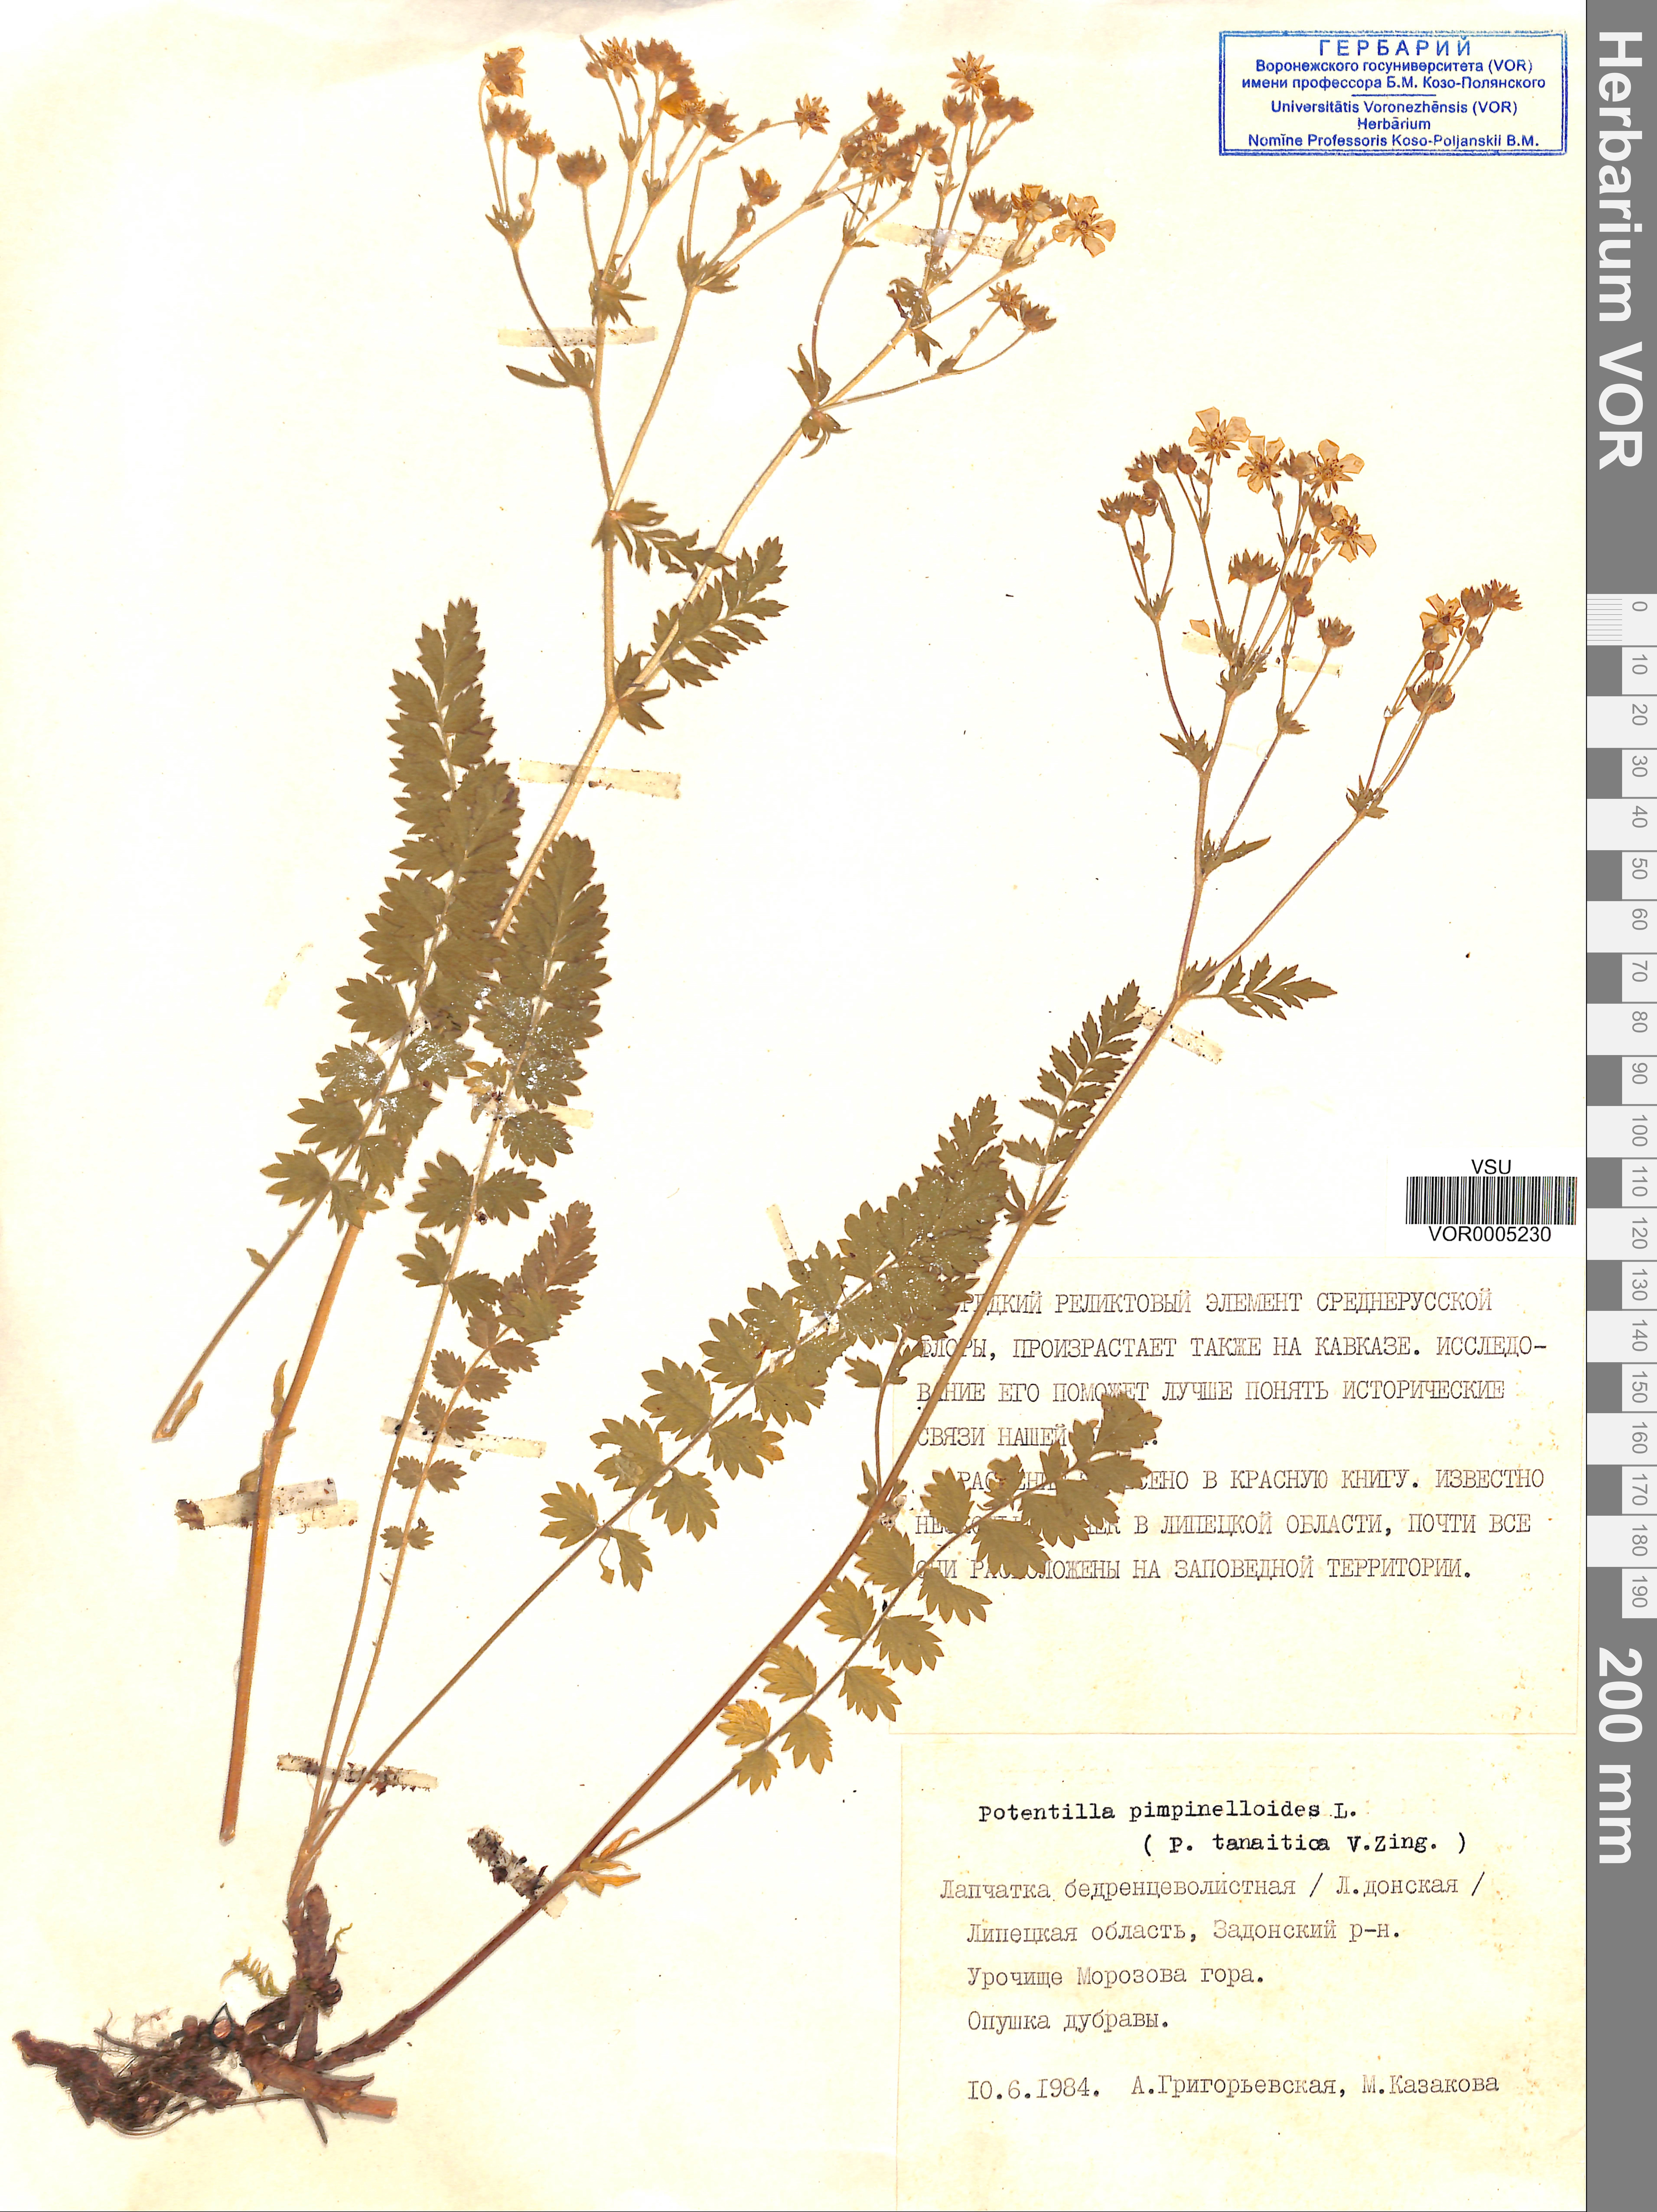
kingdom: Plantae
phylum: Tracheophyta
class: Magnoliopsida
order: Rosales
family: Rosaceae
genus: Potentilla
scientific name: Potentilla pimpinelloides
